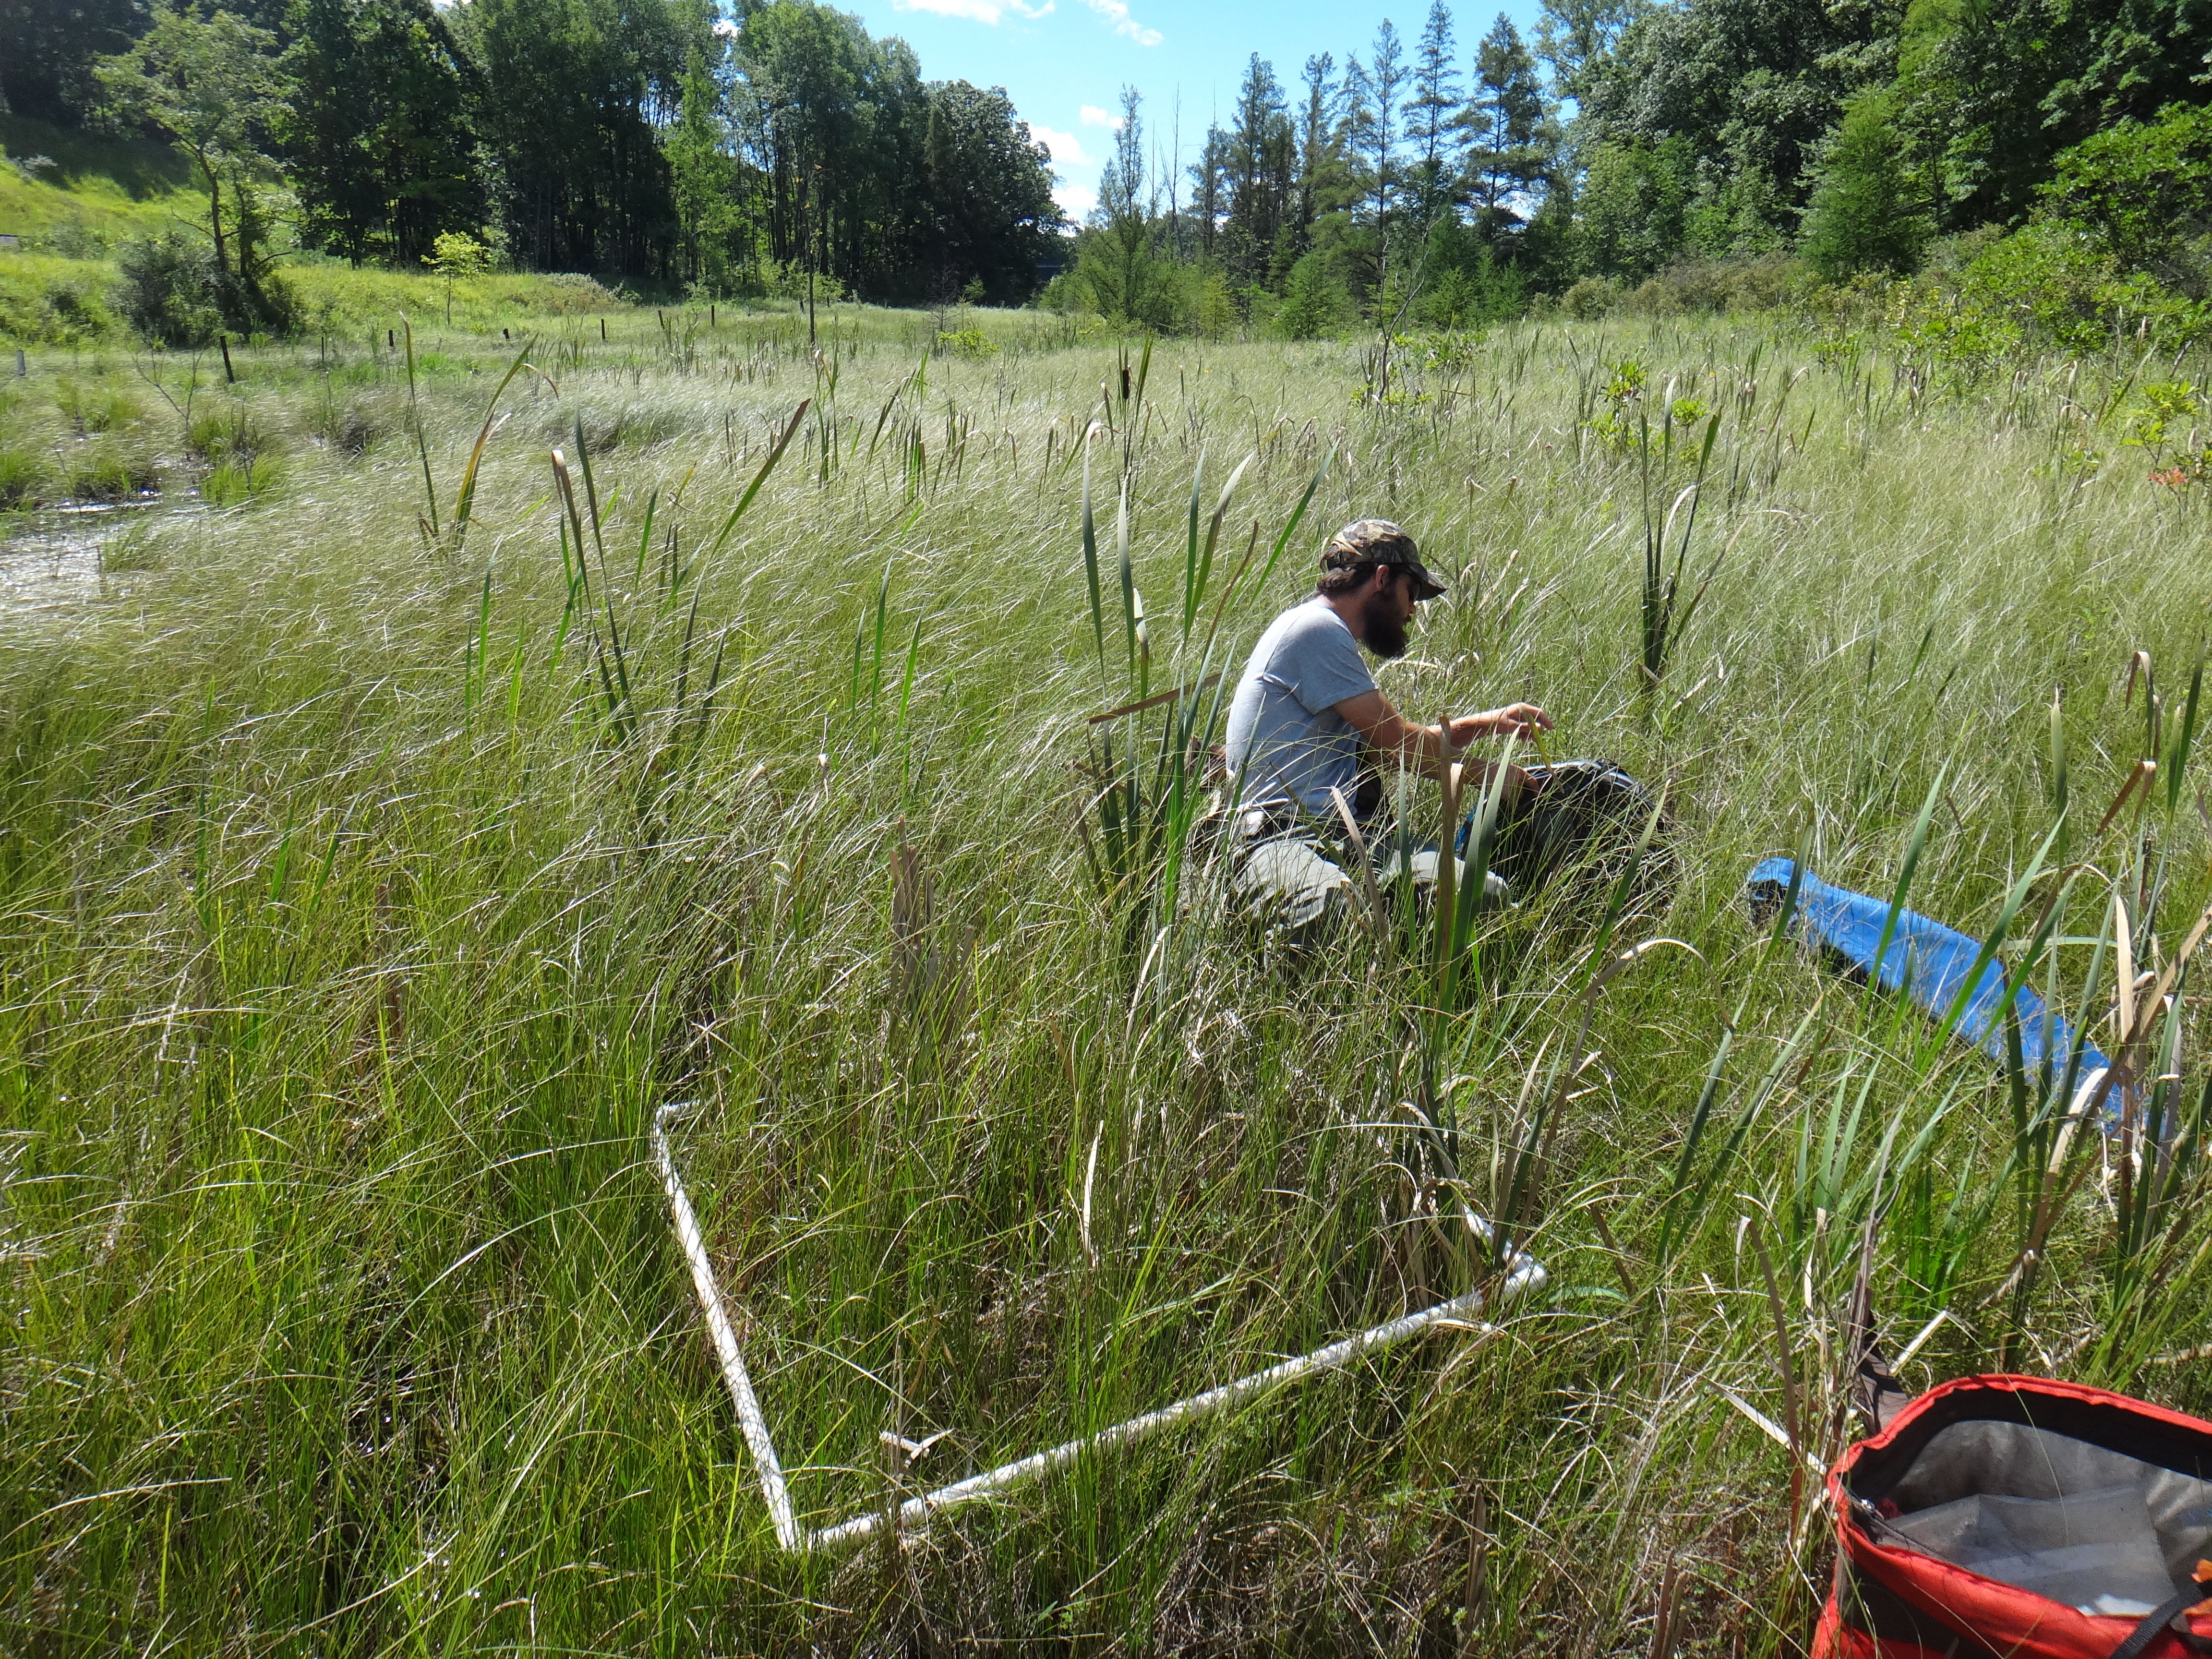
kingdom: Plantae
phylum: Tracheophyta
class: Liliopsida
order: Poales
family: Poaceae
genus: Dichanthelium
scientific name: Dichanthelium implicatum
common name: Slender-stemmed panicgrass
